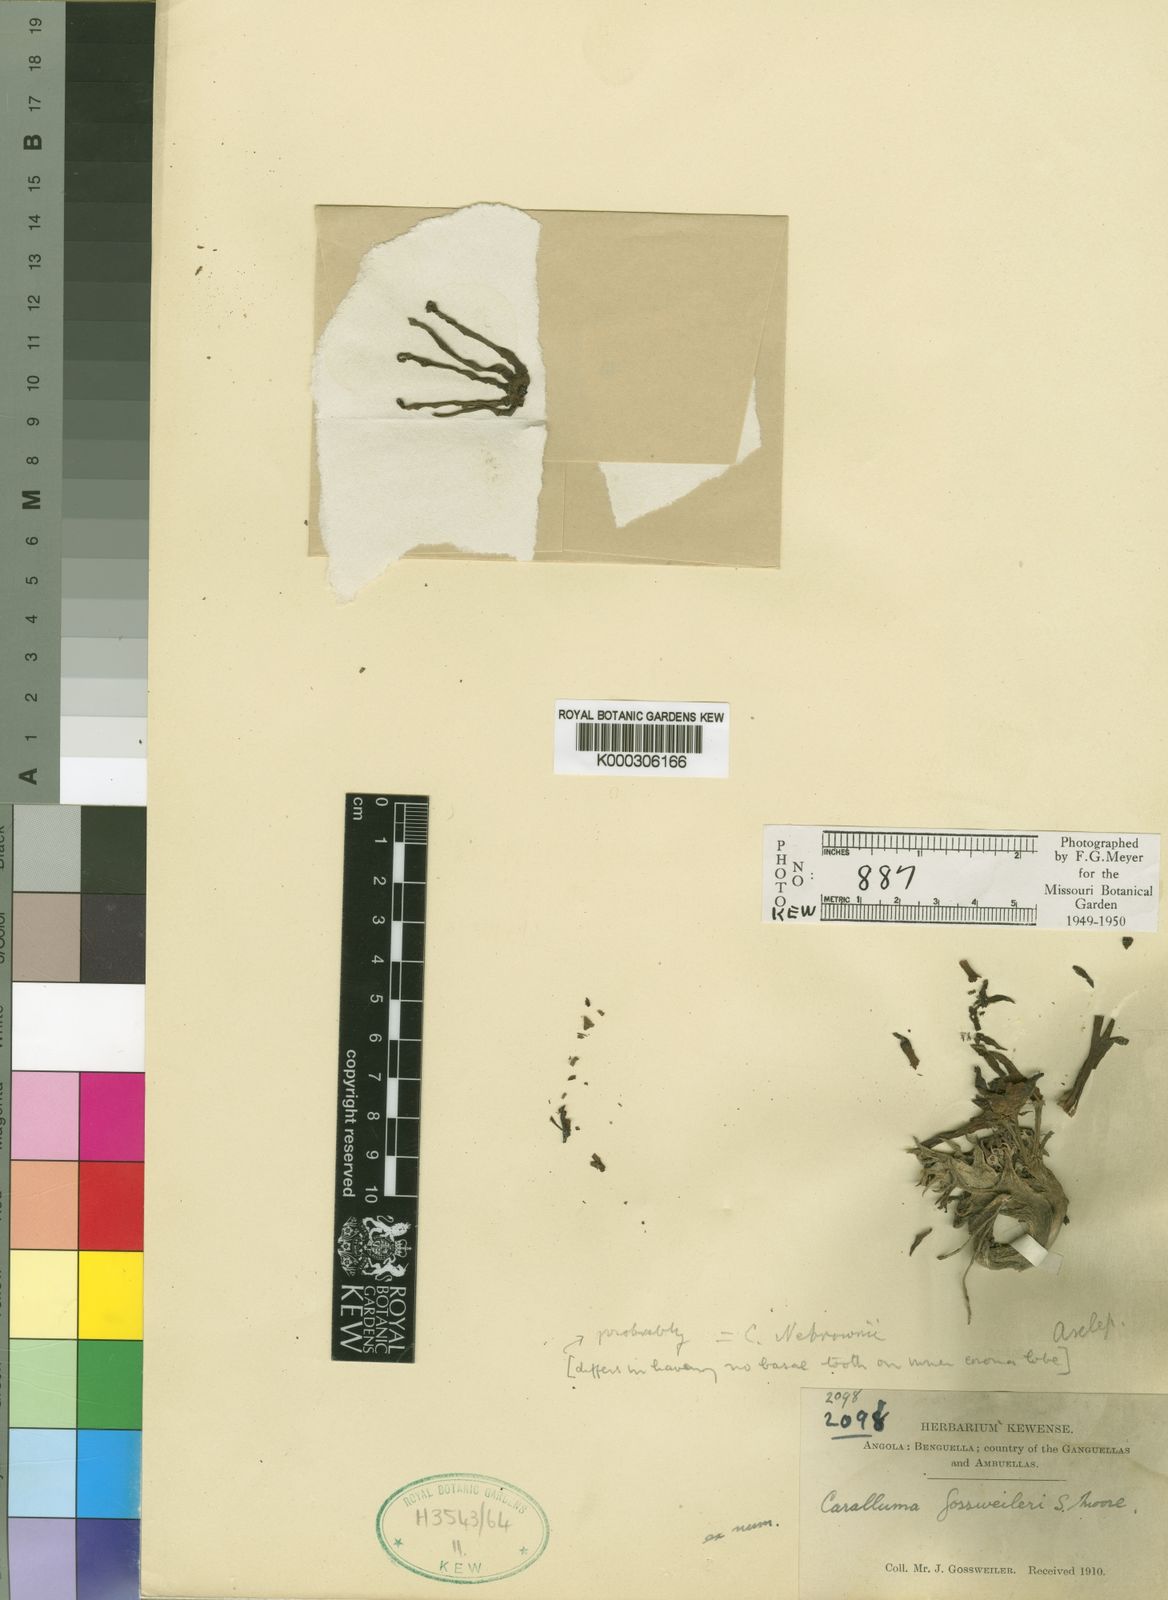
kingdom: Plantae
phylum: Tracheophyta
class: Magnoliopsida
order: Gentianales
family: Apocynaceae
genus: Ceropegia
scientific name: Ceropegia huillensis
